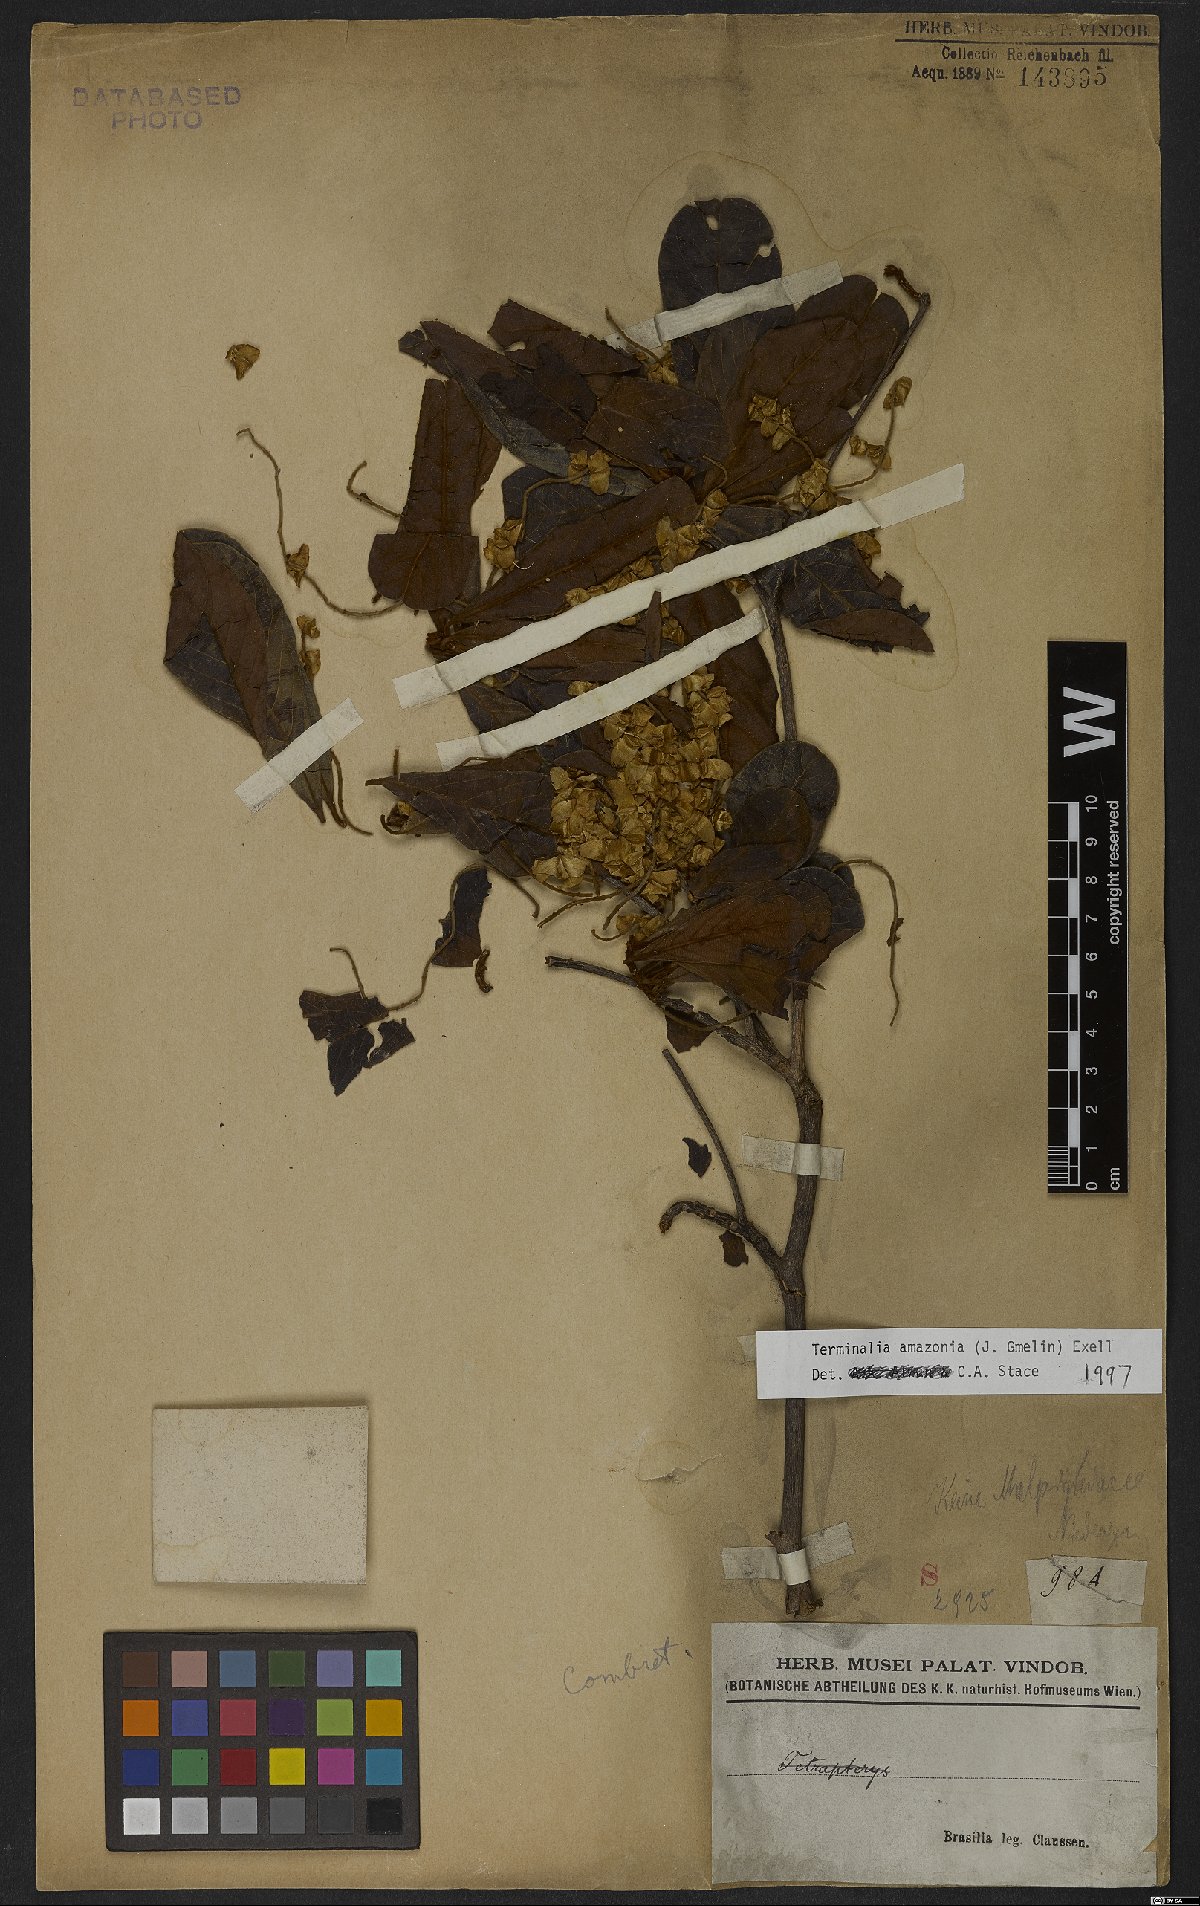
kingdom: Plantae
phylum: Tracheophyta
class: Magnoliopsida
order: Myrtales
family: Combretaceae
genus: Terminalia
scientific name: Terminalia amazonica
